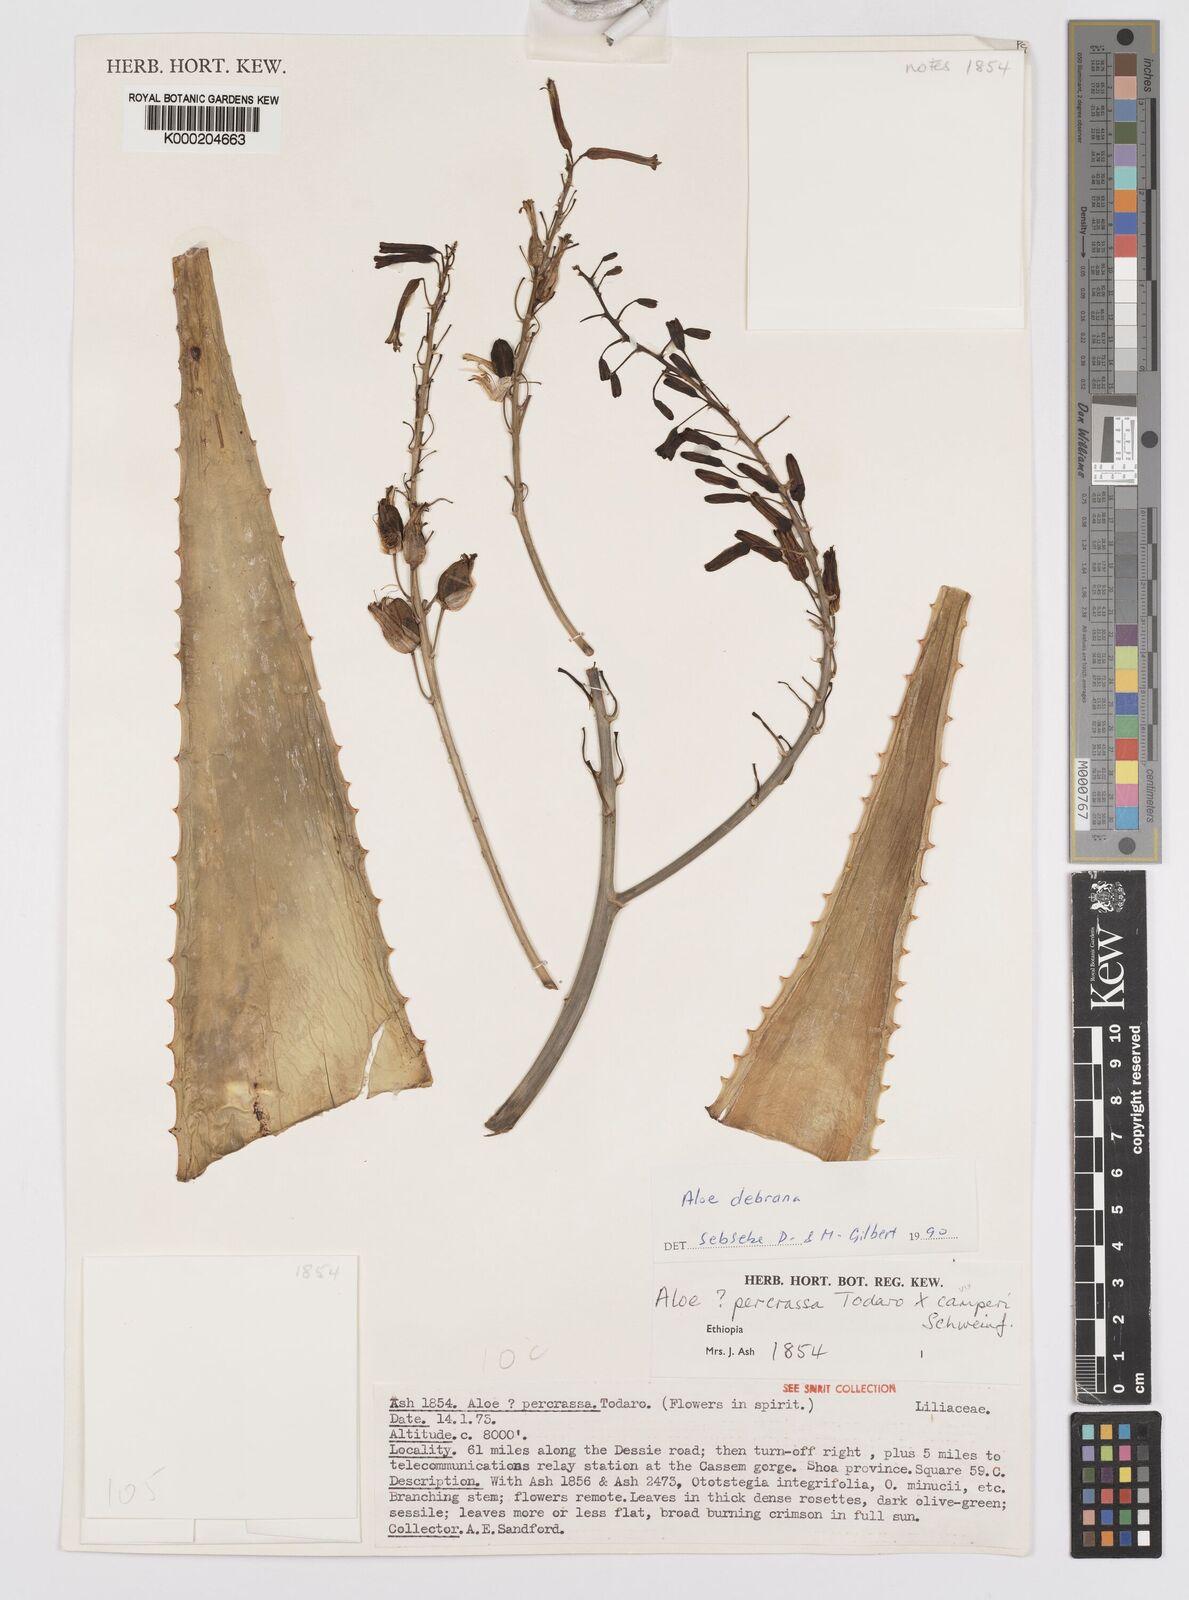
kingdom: Plantae
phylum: Tracheophyta
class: Liliopsida
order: Asparagales
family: Asphodelaceae
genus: Aloe
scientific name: Aloe debrana
